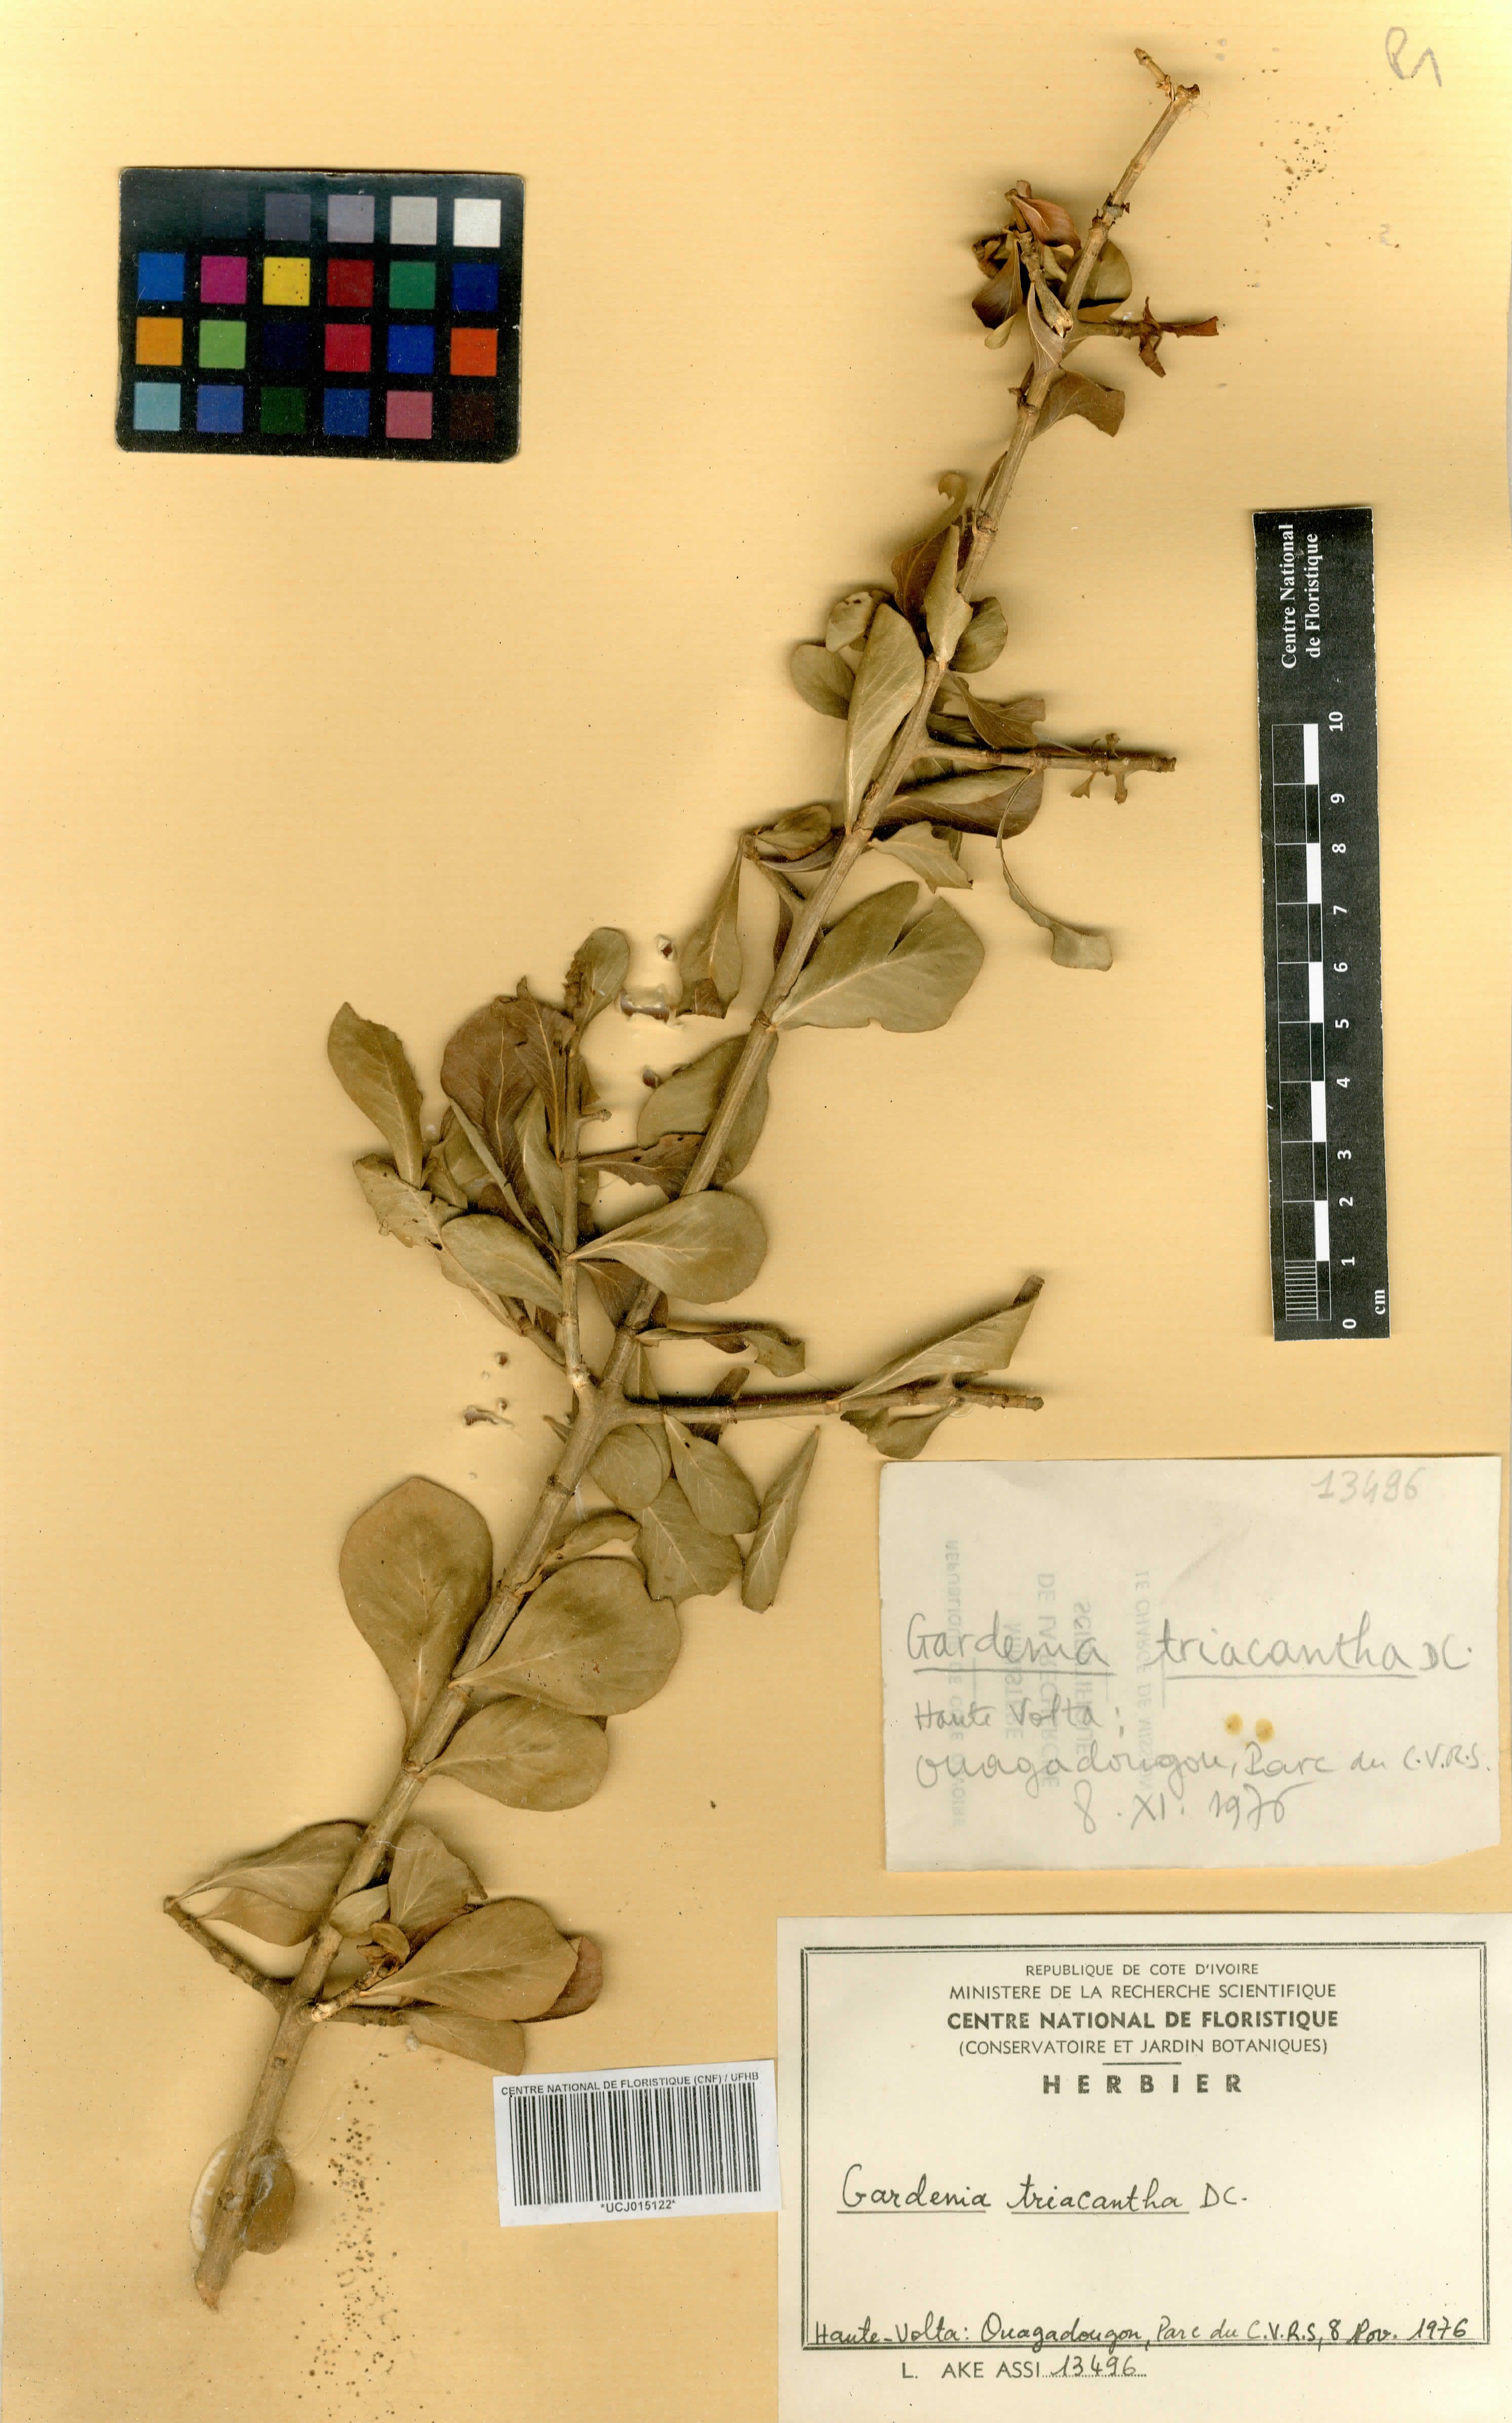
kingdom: Plantae
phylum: Tracheophyta
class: Magnoliopsida
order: Gentianales
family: Rubiaceae
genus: Gardenia
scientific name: Gardenia ternifolia
